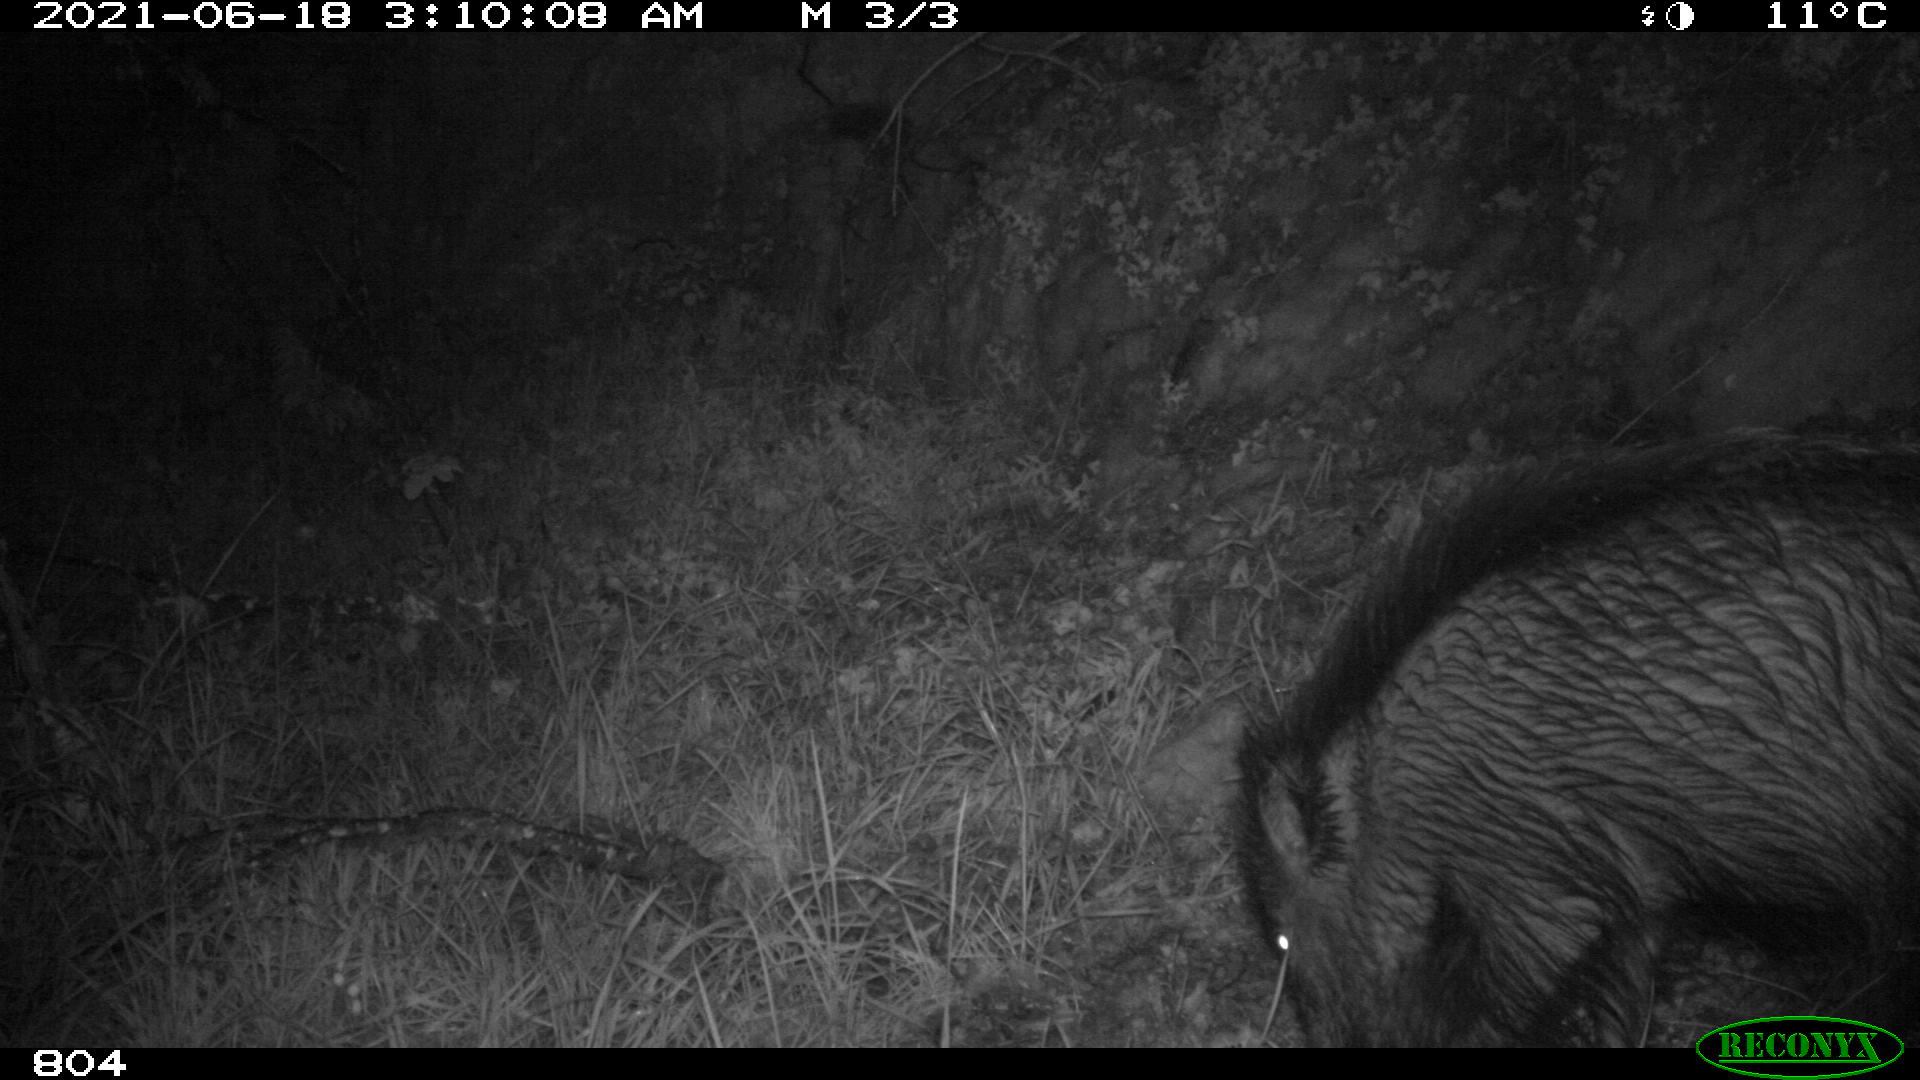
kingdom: Animalia
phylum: Chordata
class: Mammalia
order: Artiodactyla
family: Suidae
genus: Sus
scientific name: Sus scrofa
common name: Wild boar
